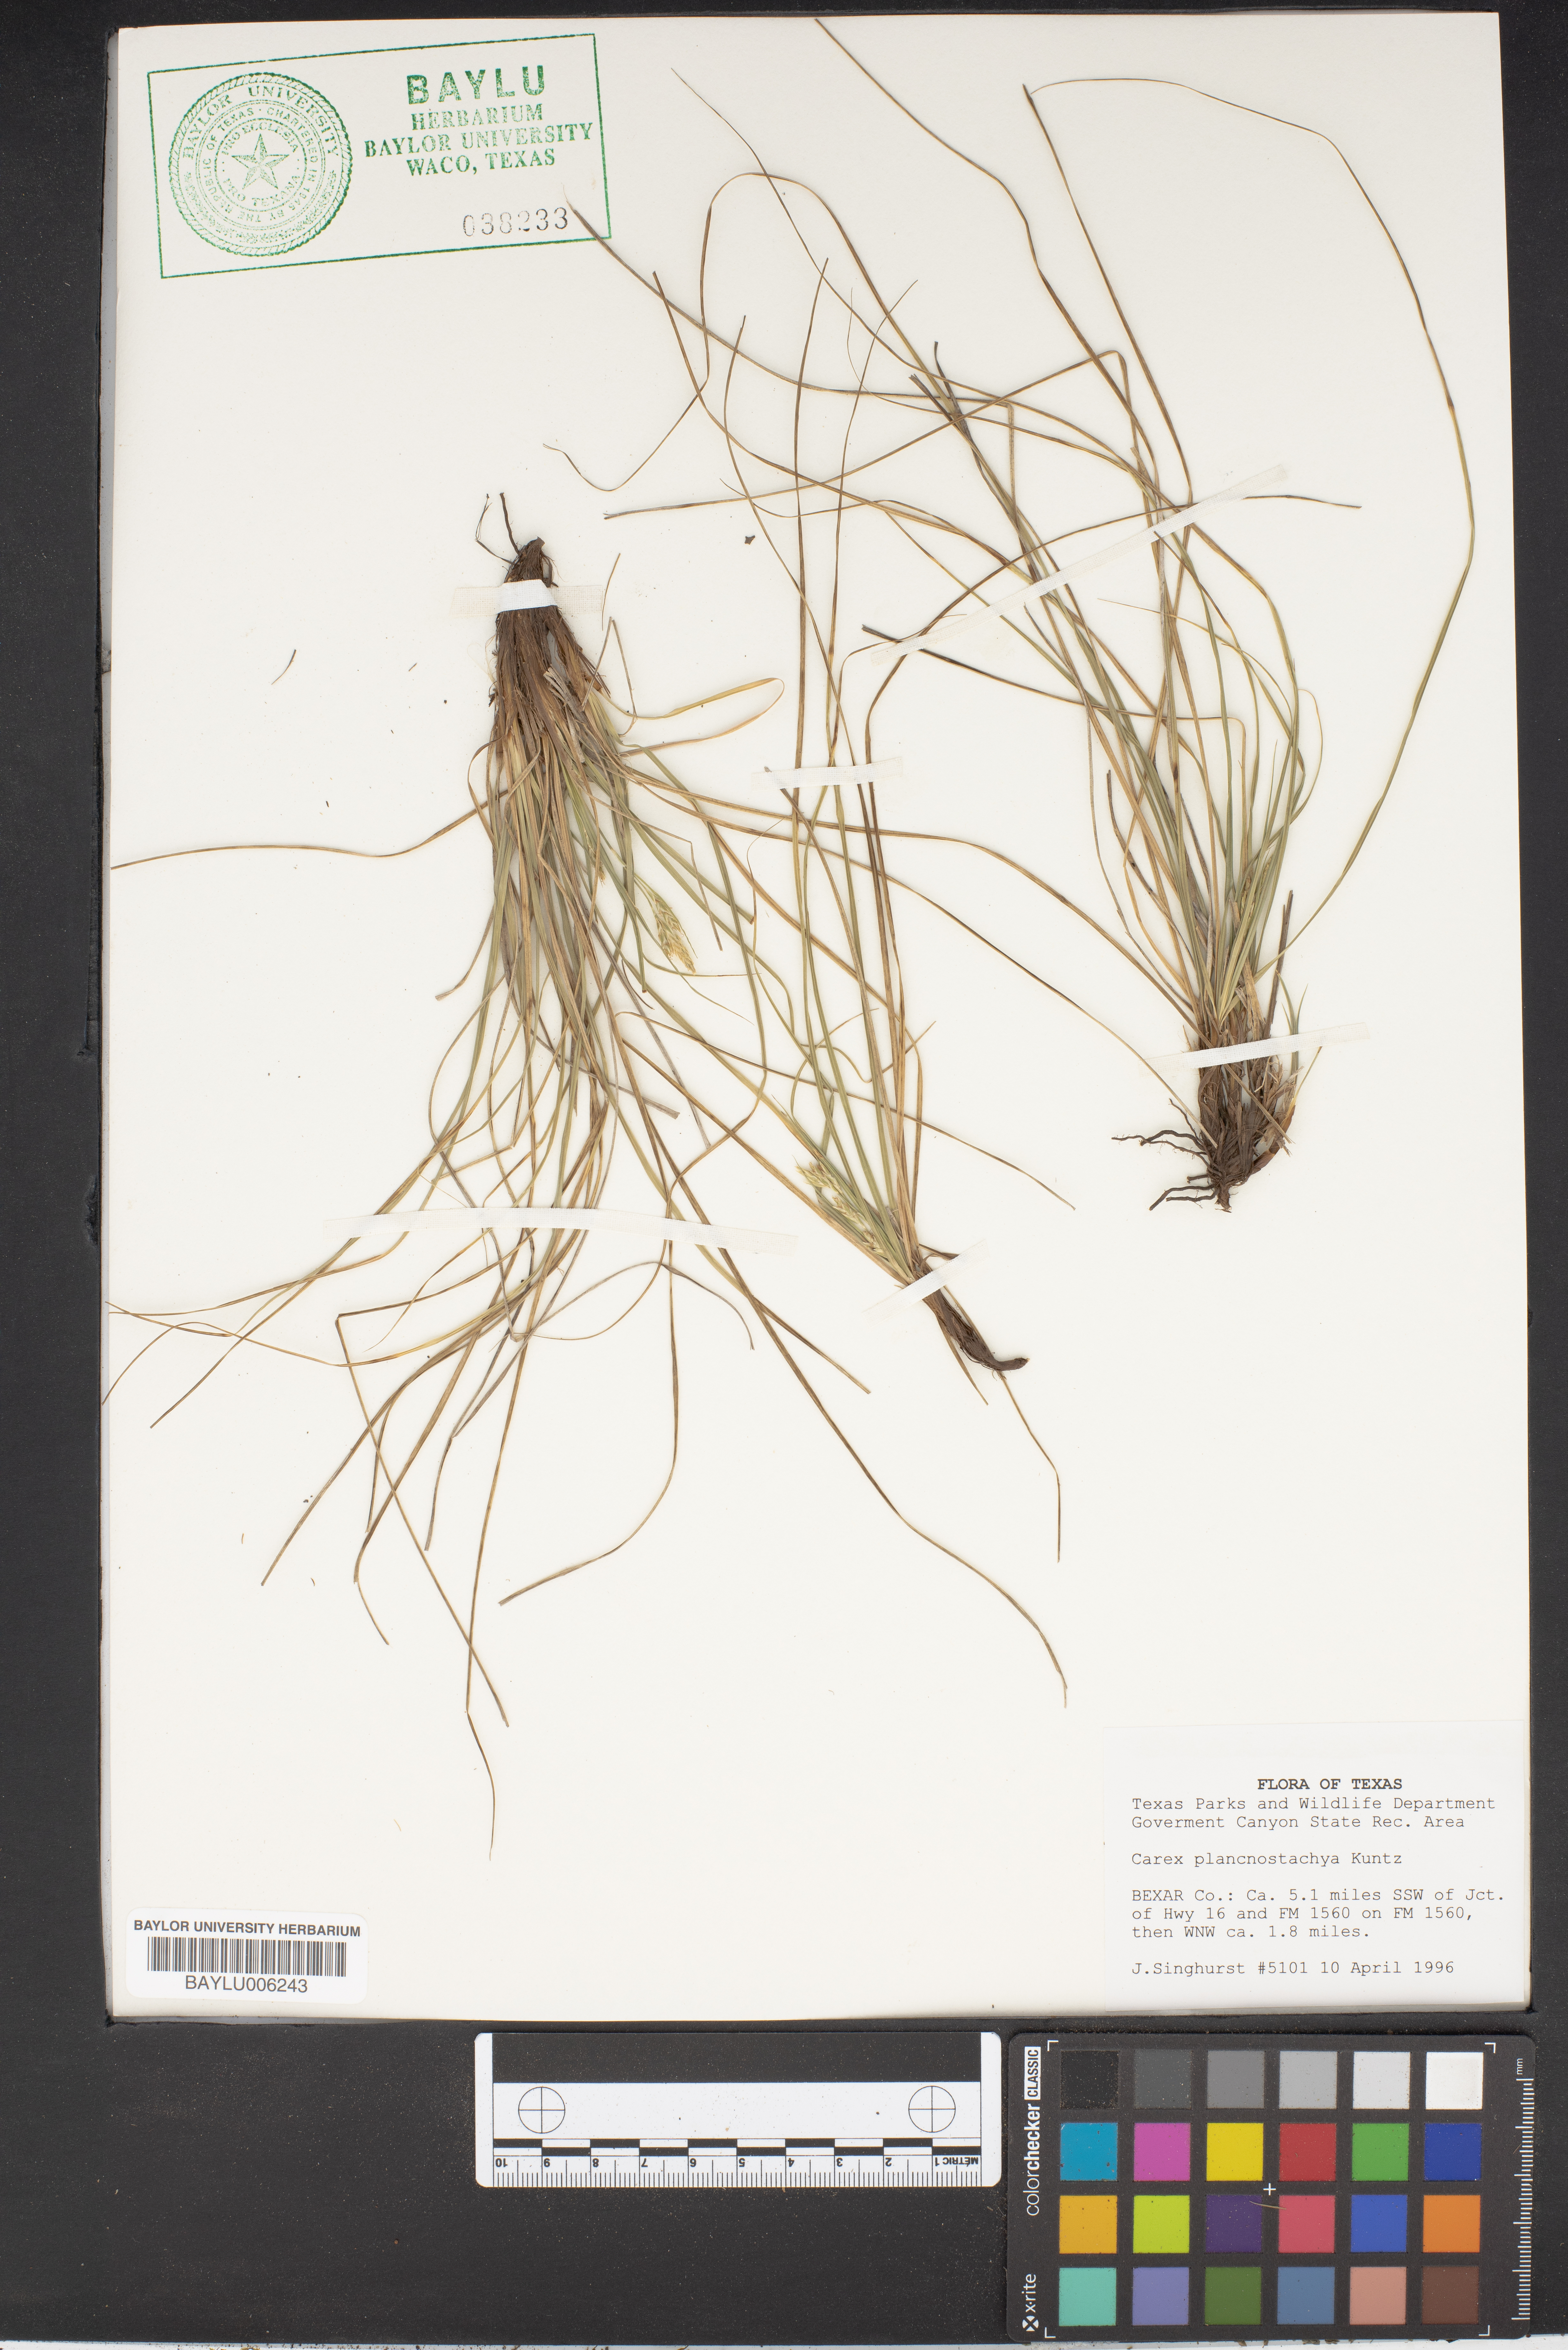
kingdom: Plantae
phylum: Tracheophyta
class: Liliopsida
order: Poales
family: Cyperaceae
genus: Carex
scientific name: Carex
